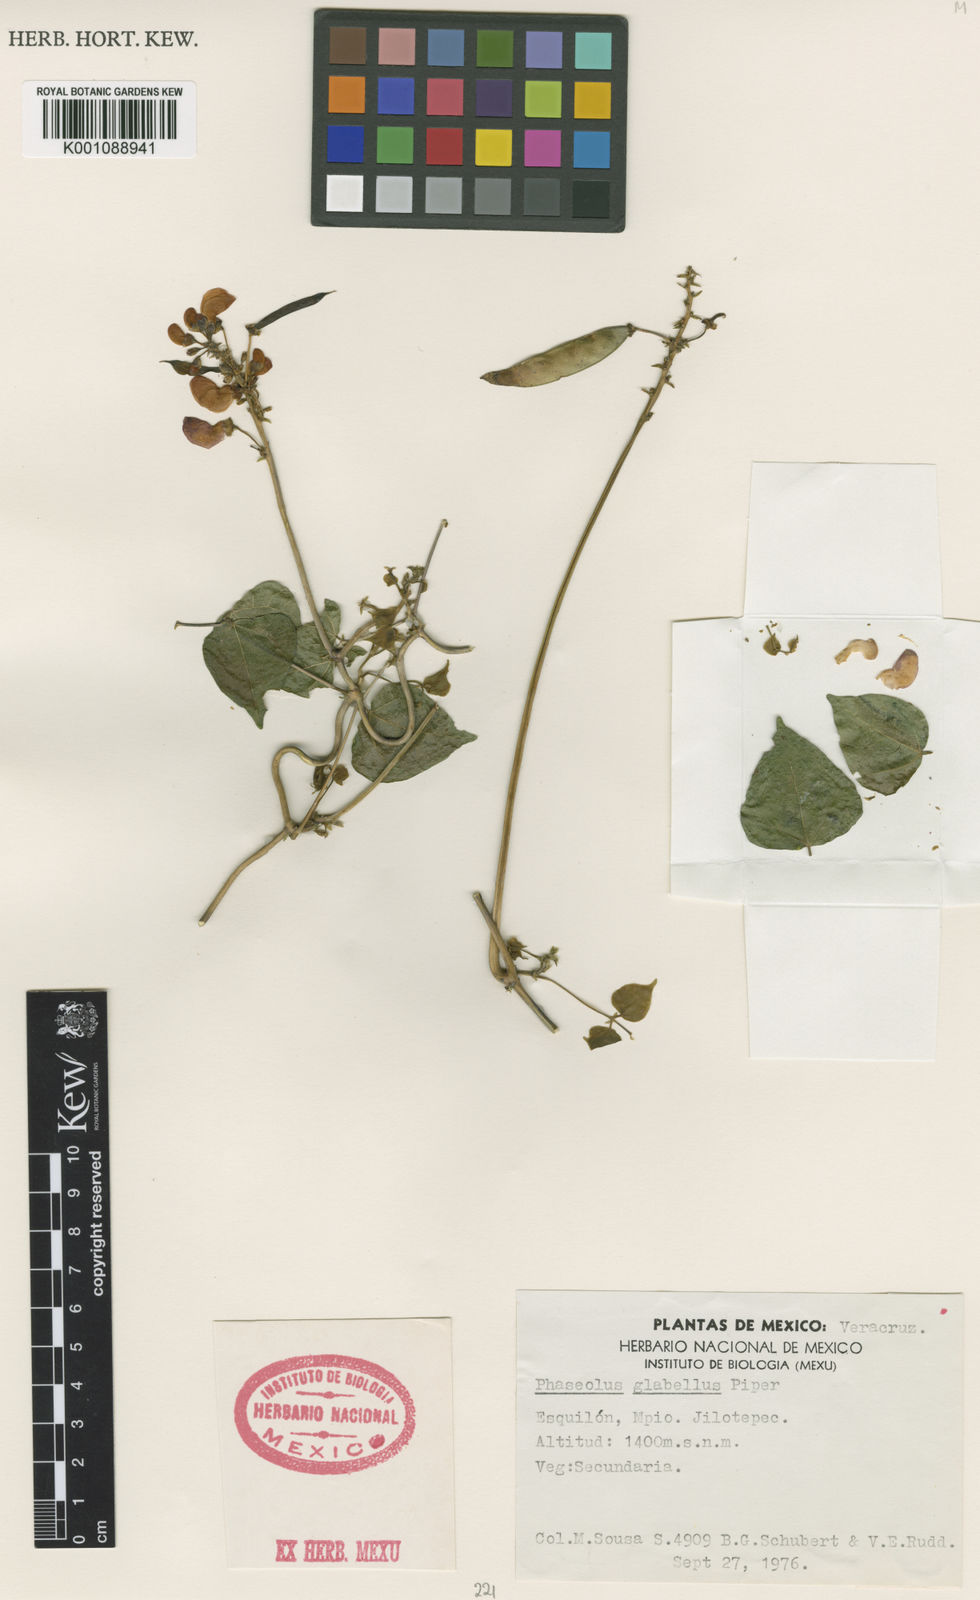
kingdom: Plantae
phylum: Tracheophyta
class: Magnoliopsida
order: Fabales
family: Fabaceae
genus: Phaseolus
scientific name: Phaseolus glabellus
